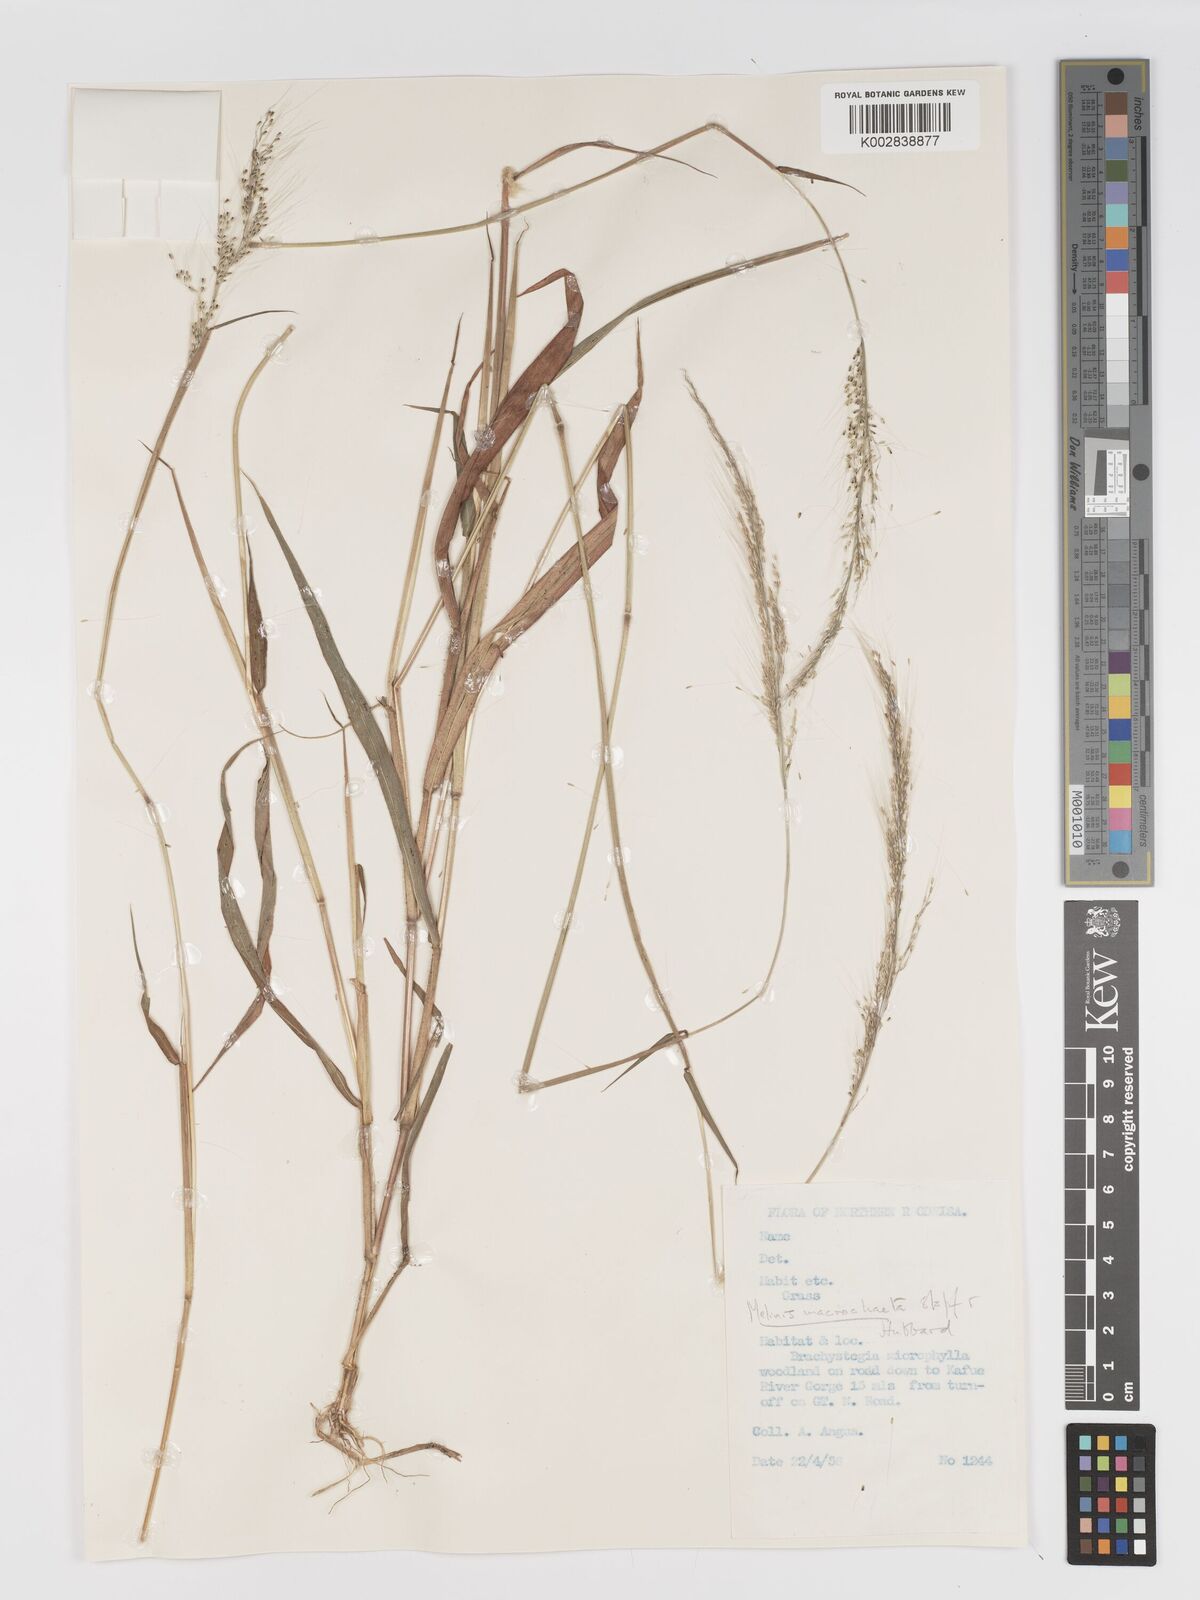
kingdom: Plantae
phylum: Tracheophyta
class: Liliopsida
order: Poales
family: Poaceae
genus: Melinis
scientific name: Melinis macrochaeta
